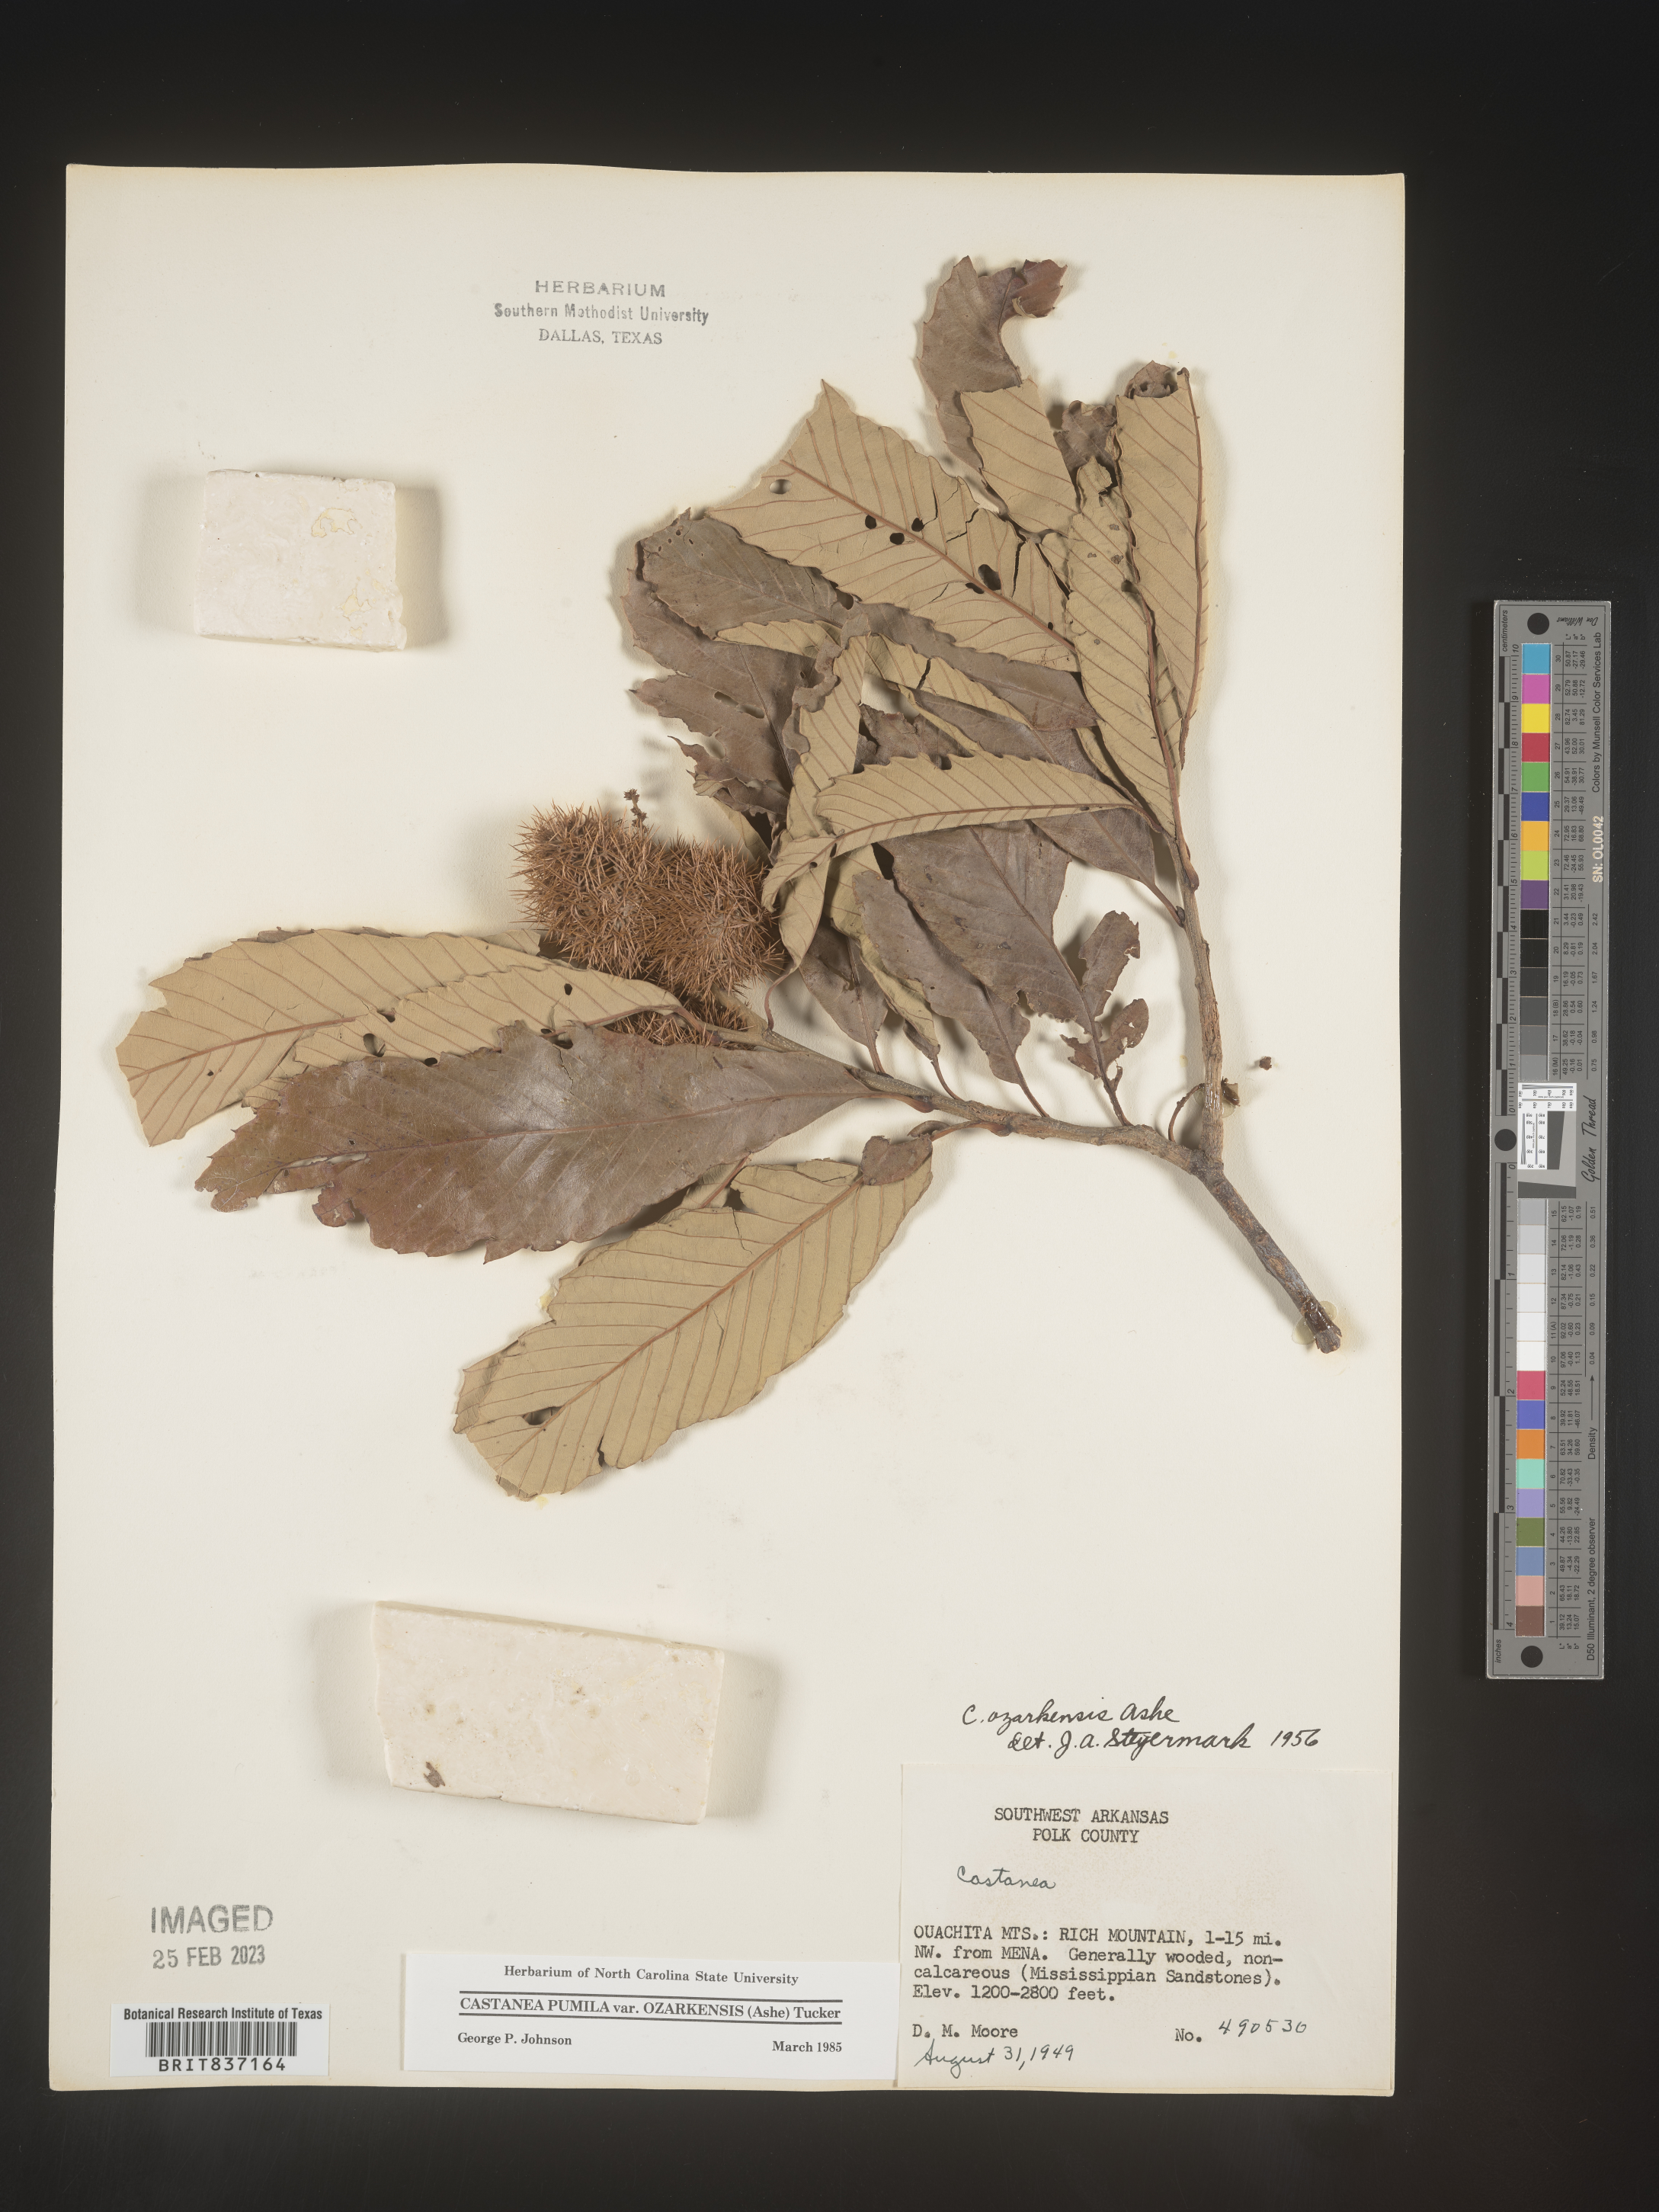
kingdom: Plantae
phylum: Tracheophyta
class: Magnoliopsida
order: Fagales
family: Fagaceae
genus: Castanea
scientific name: Castanea pumila
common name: Chinkapin
